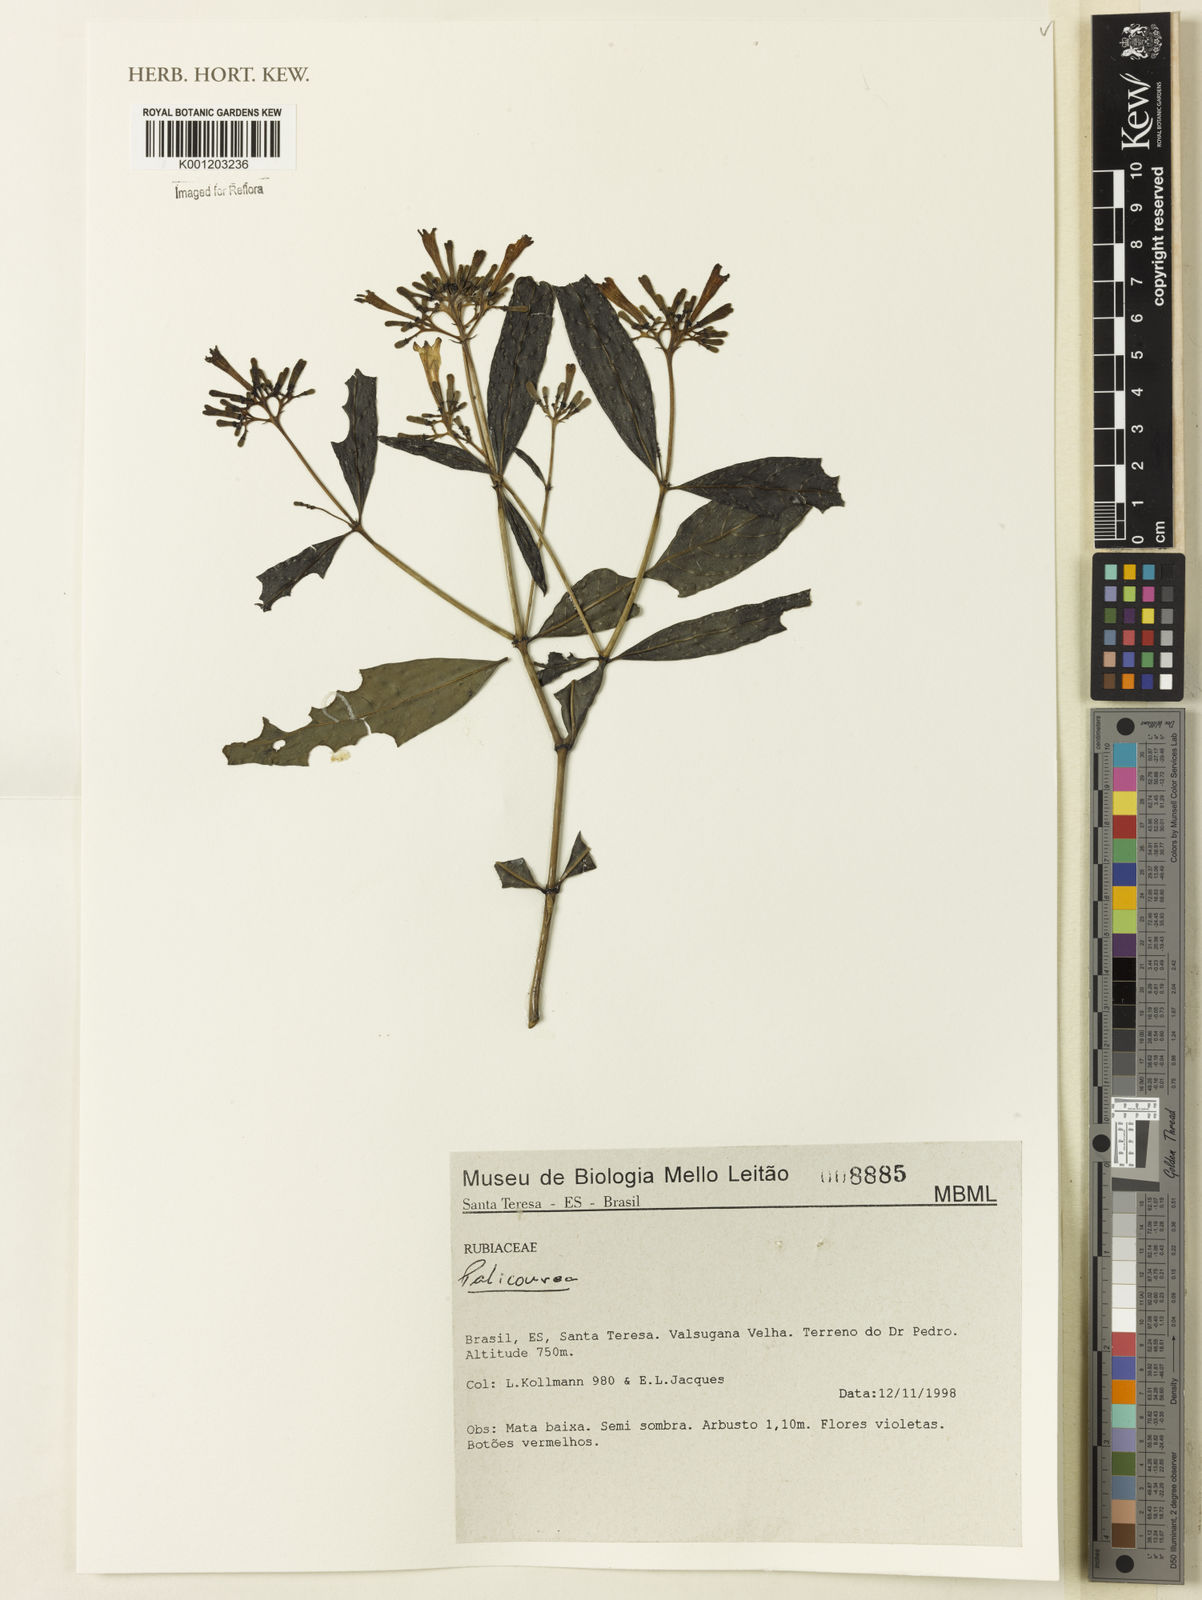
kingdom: Plantae
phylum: Tracheophyta
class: Magnoliopsida
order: Gentianales
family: Rubiaceae
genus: Palicourea
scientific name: Palicourea
